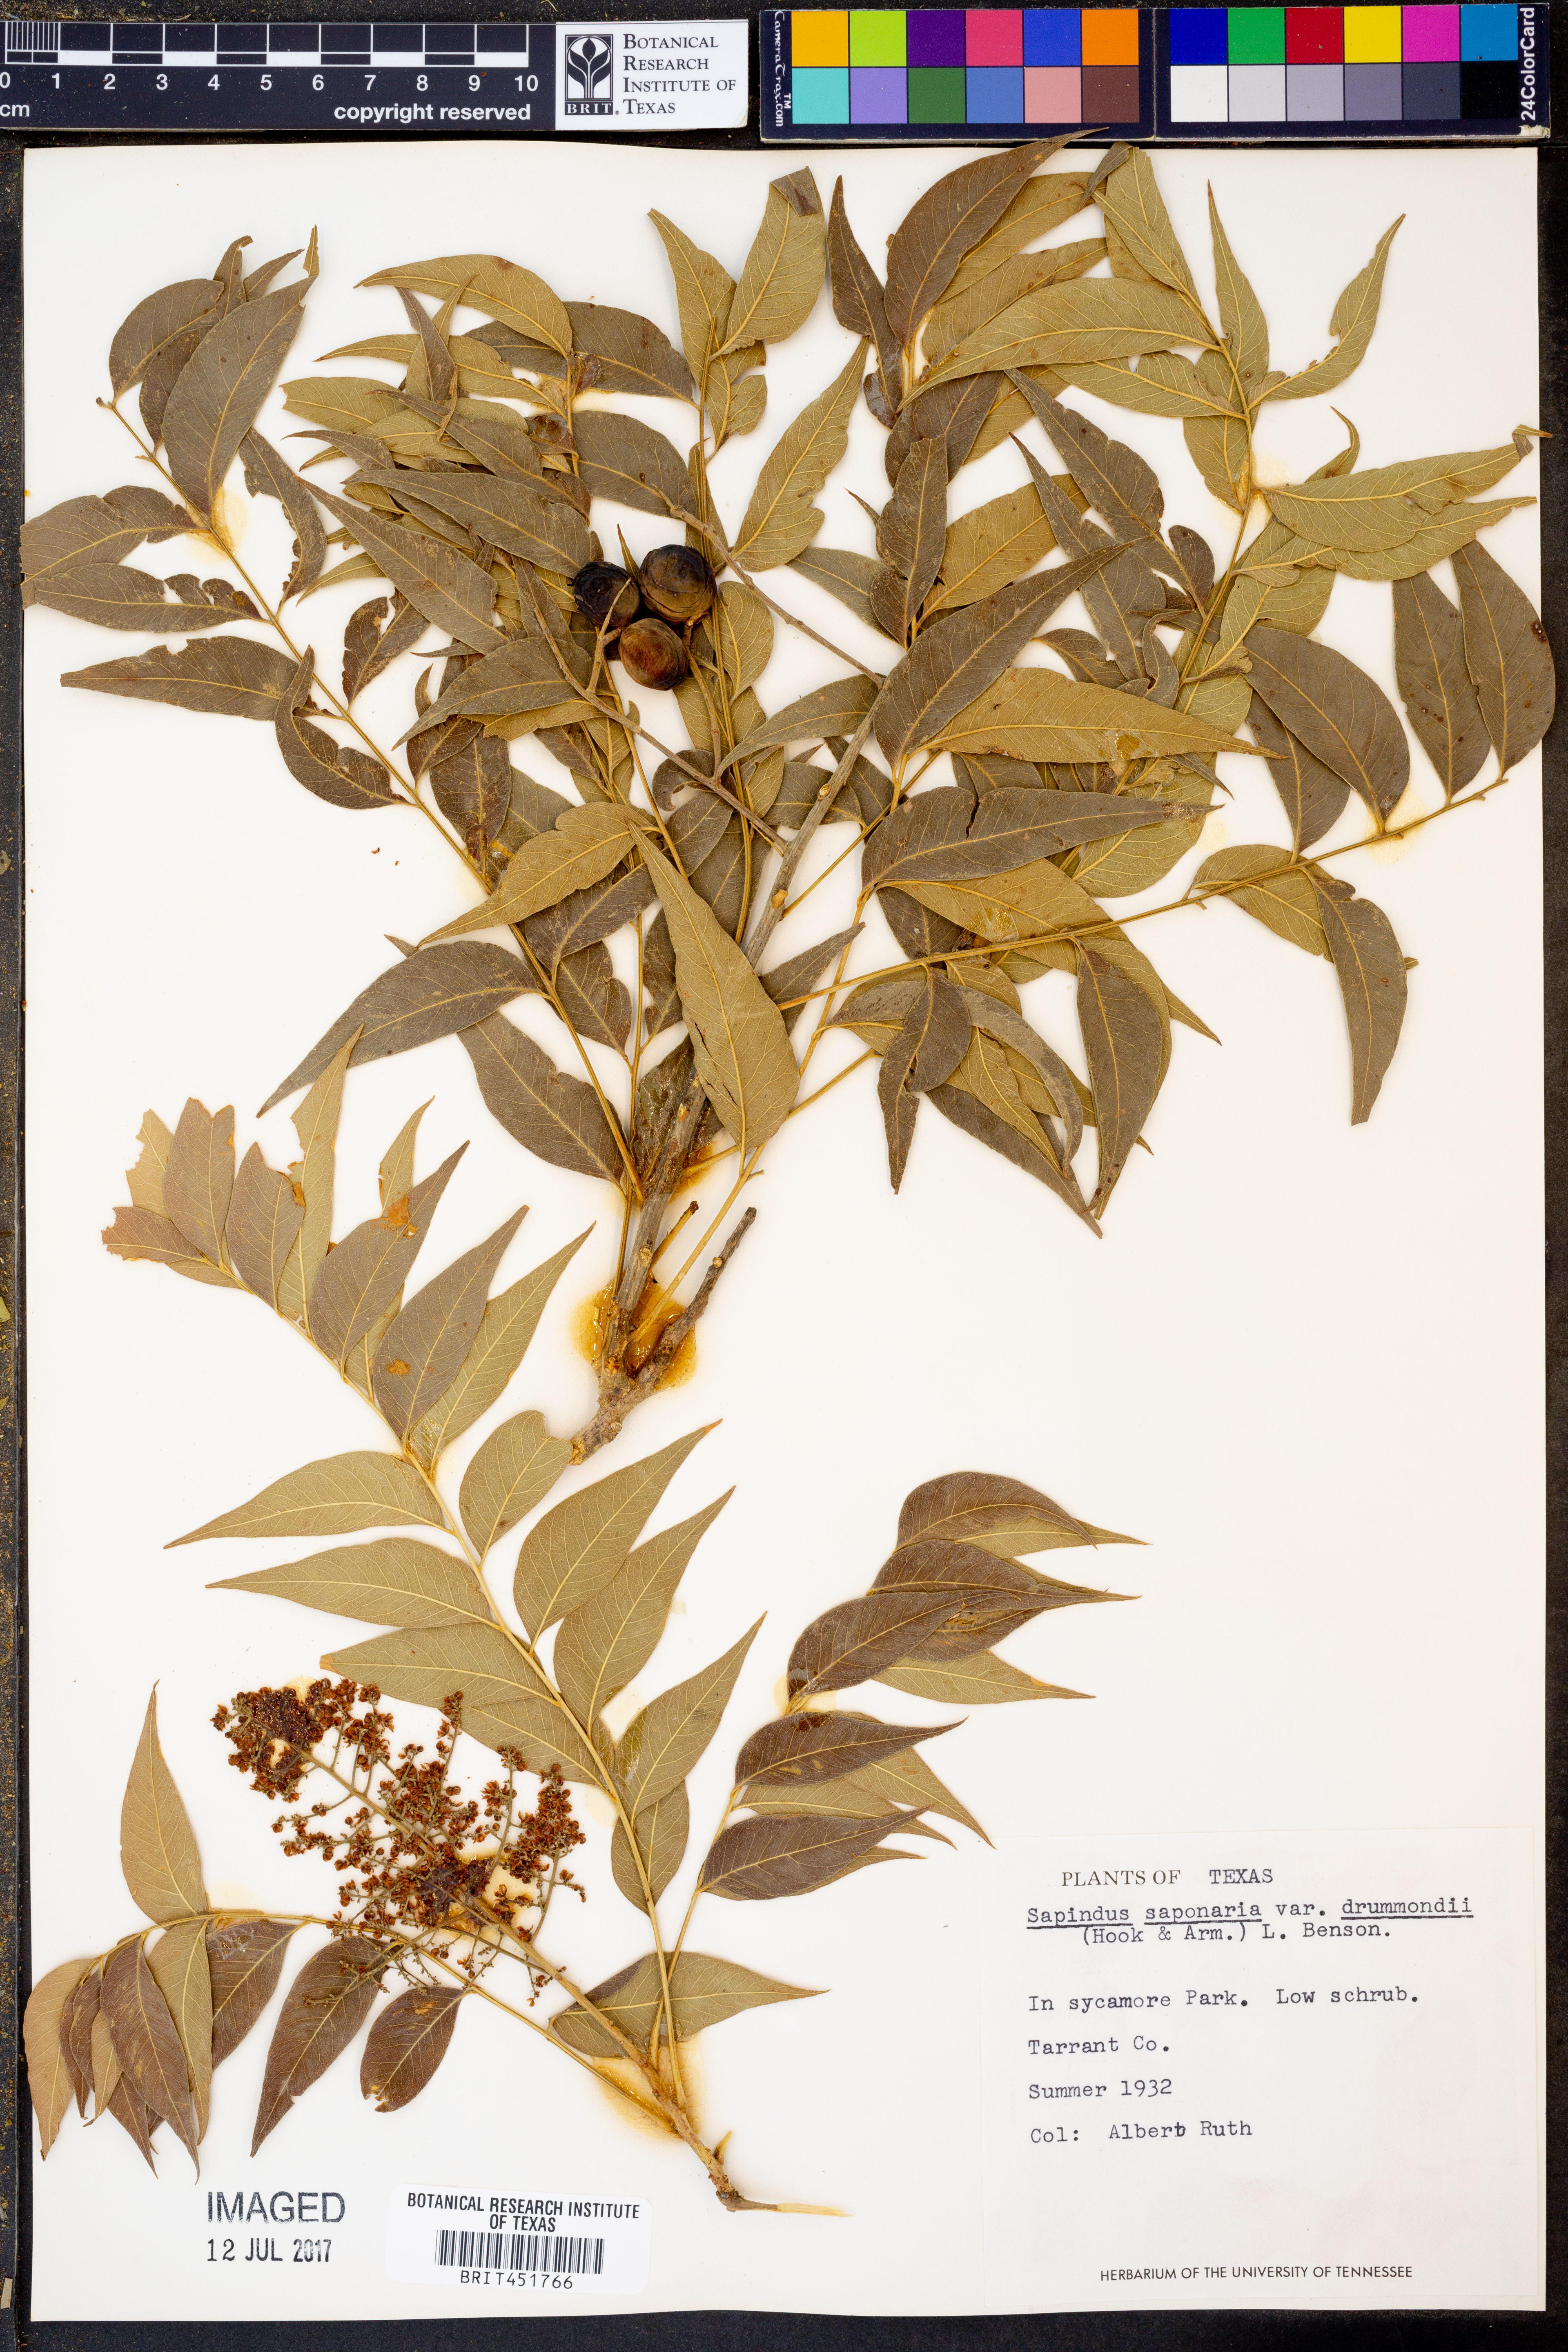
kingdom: Plantae
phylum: Tracheophyta
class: Magnoliopsida
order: Sapindales
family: Sapindaceae
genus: Sapindus
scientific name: Sapindus drummondii
